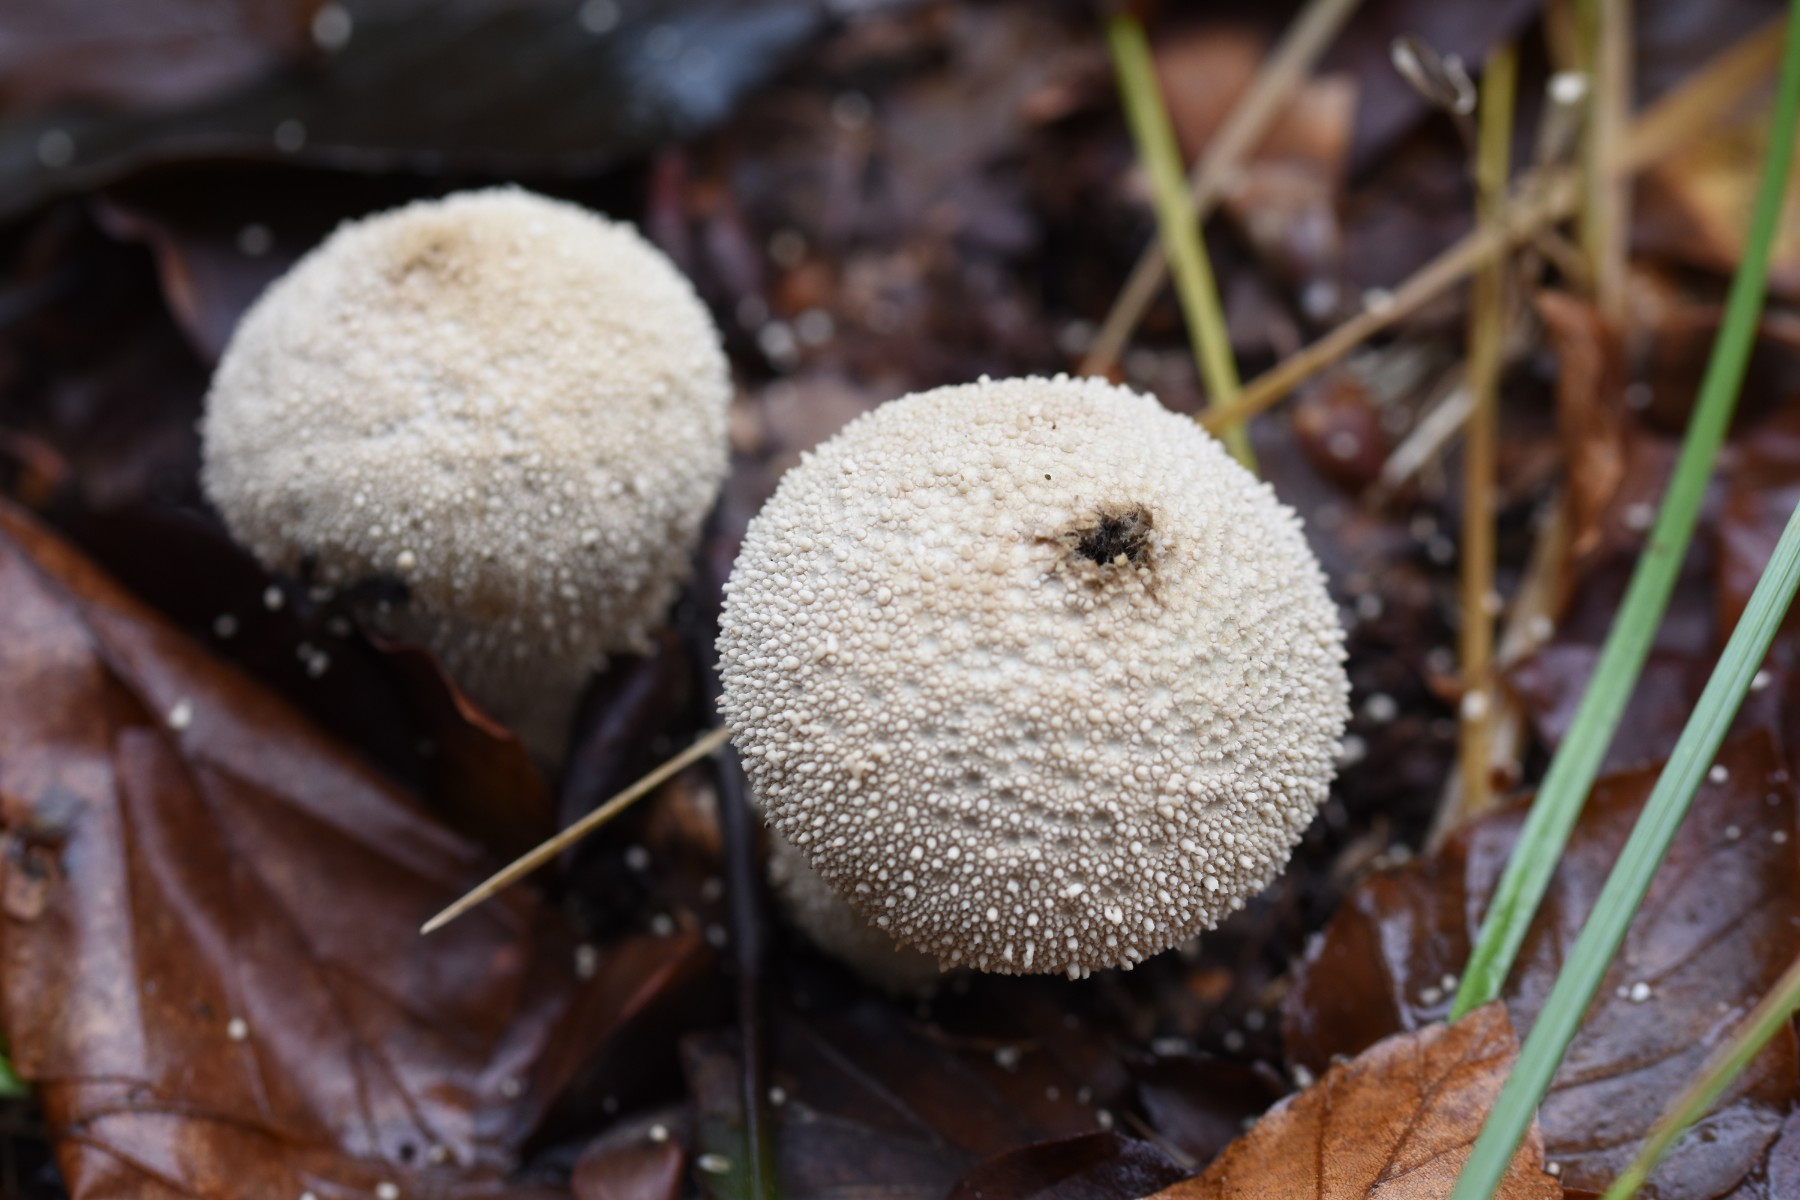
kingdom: Fungi
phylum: Basidiomycota
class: Agaricomycetes
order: Agaricales
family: Lycoperdaceae
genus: Lycoperdon
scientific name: Lycoperdon perlatum
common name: krystal-støvbold
